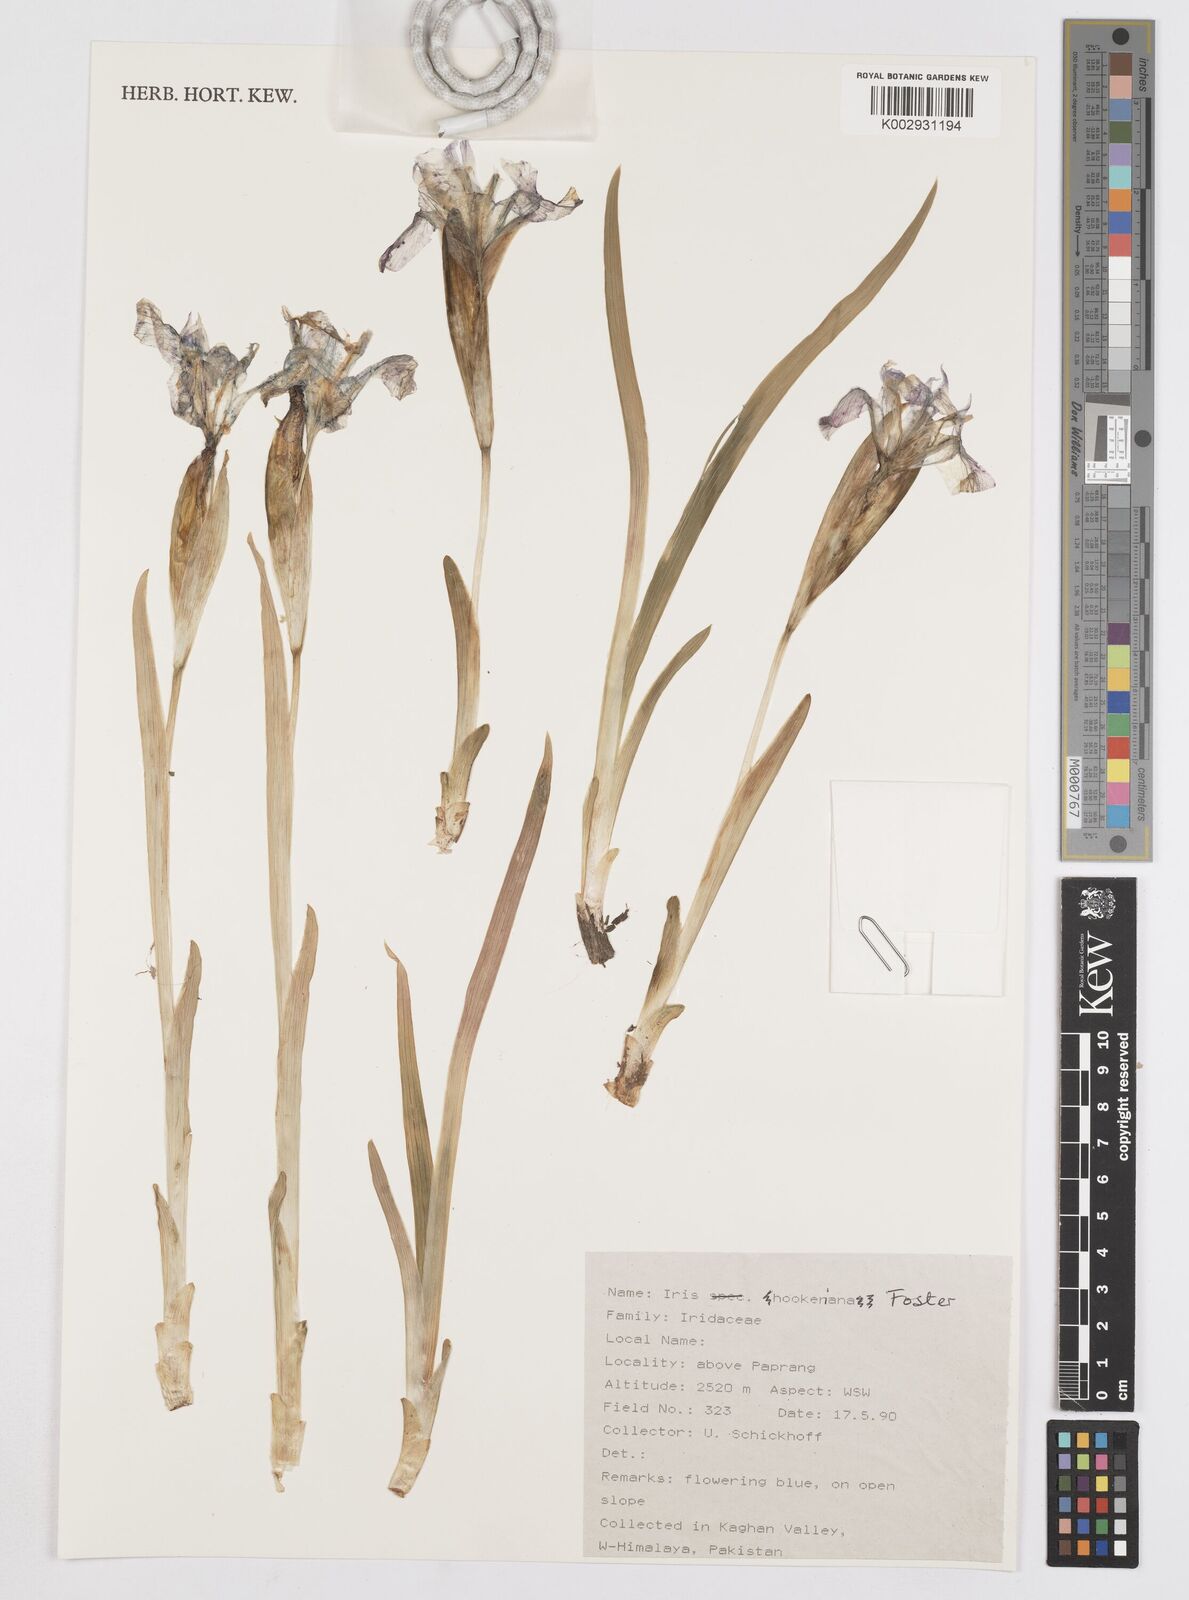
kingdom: Plantae
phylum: Tracheophyta
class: Liliopsida
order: Asparagales
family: Iridaceae
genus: Iris
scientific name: Iris hookeriana
